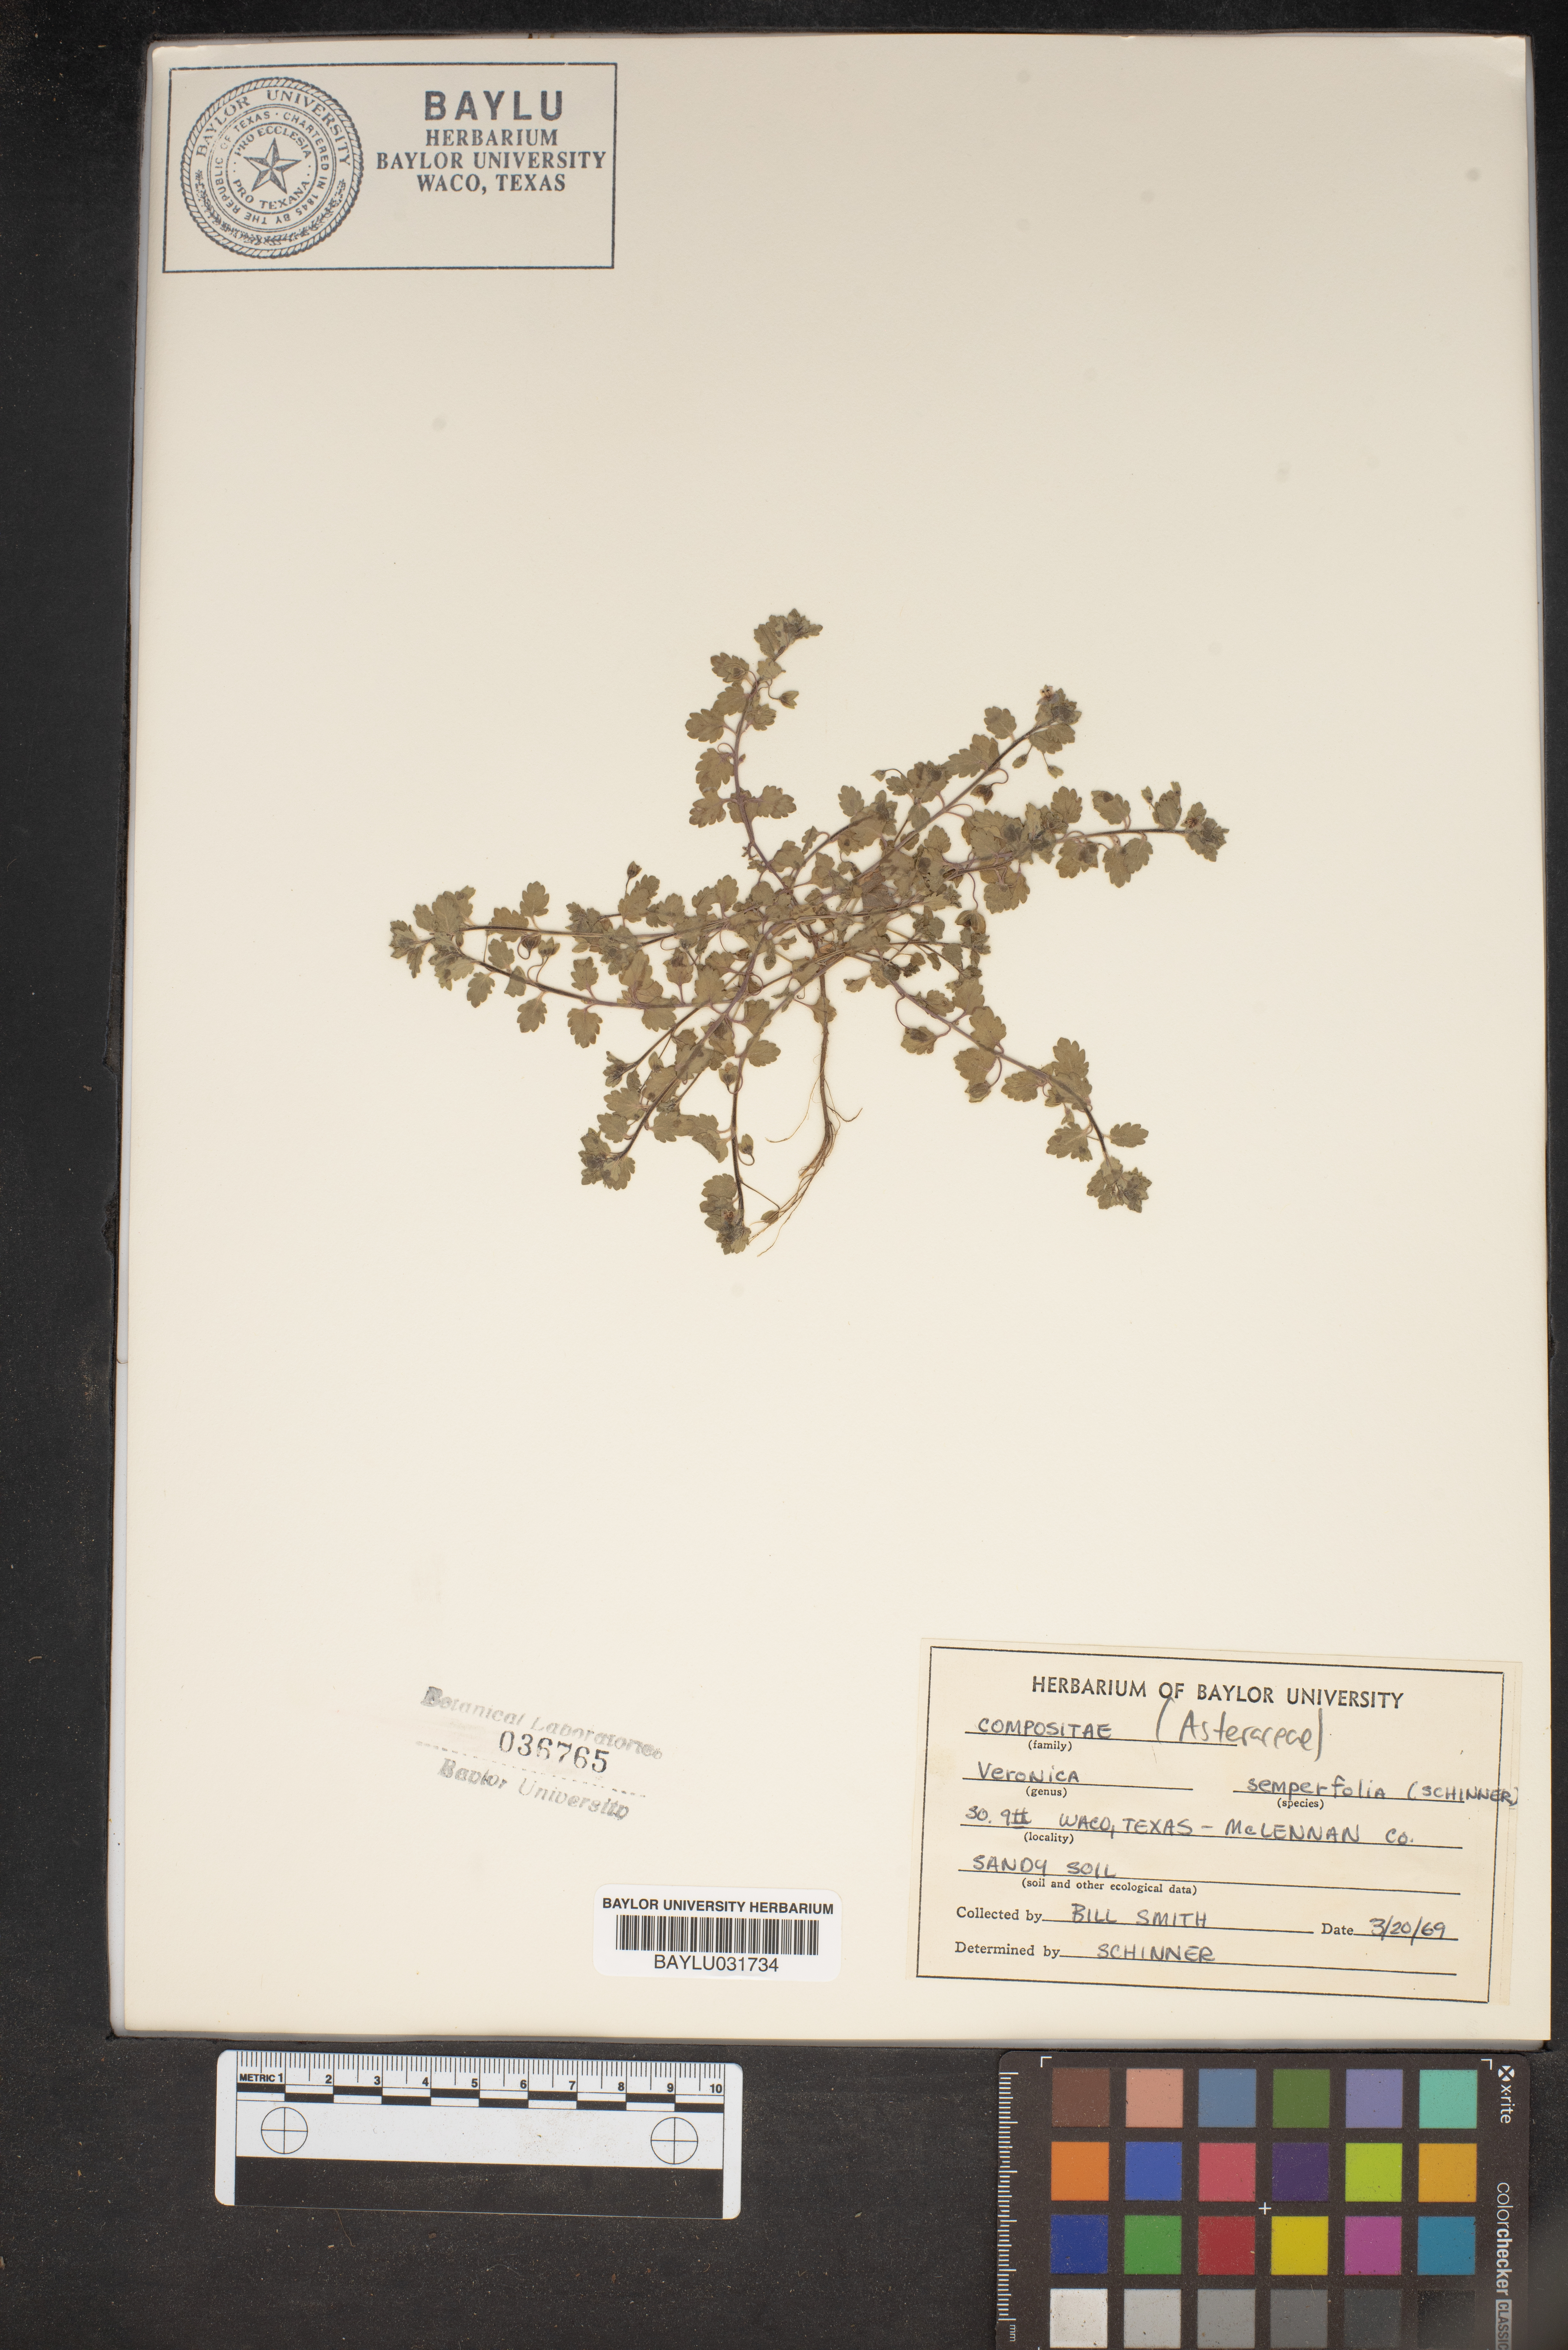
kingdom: Plantae
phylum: Tracheophyta
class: Magnoliopsida
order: Lamiales
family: Plantaginaceae
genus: Veronica
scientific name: Veronica
